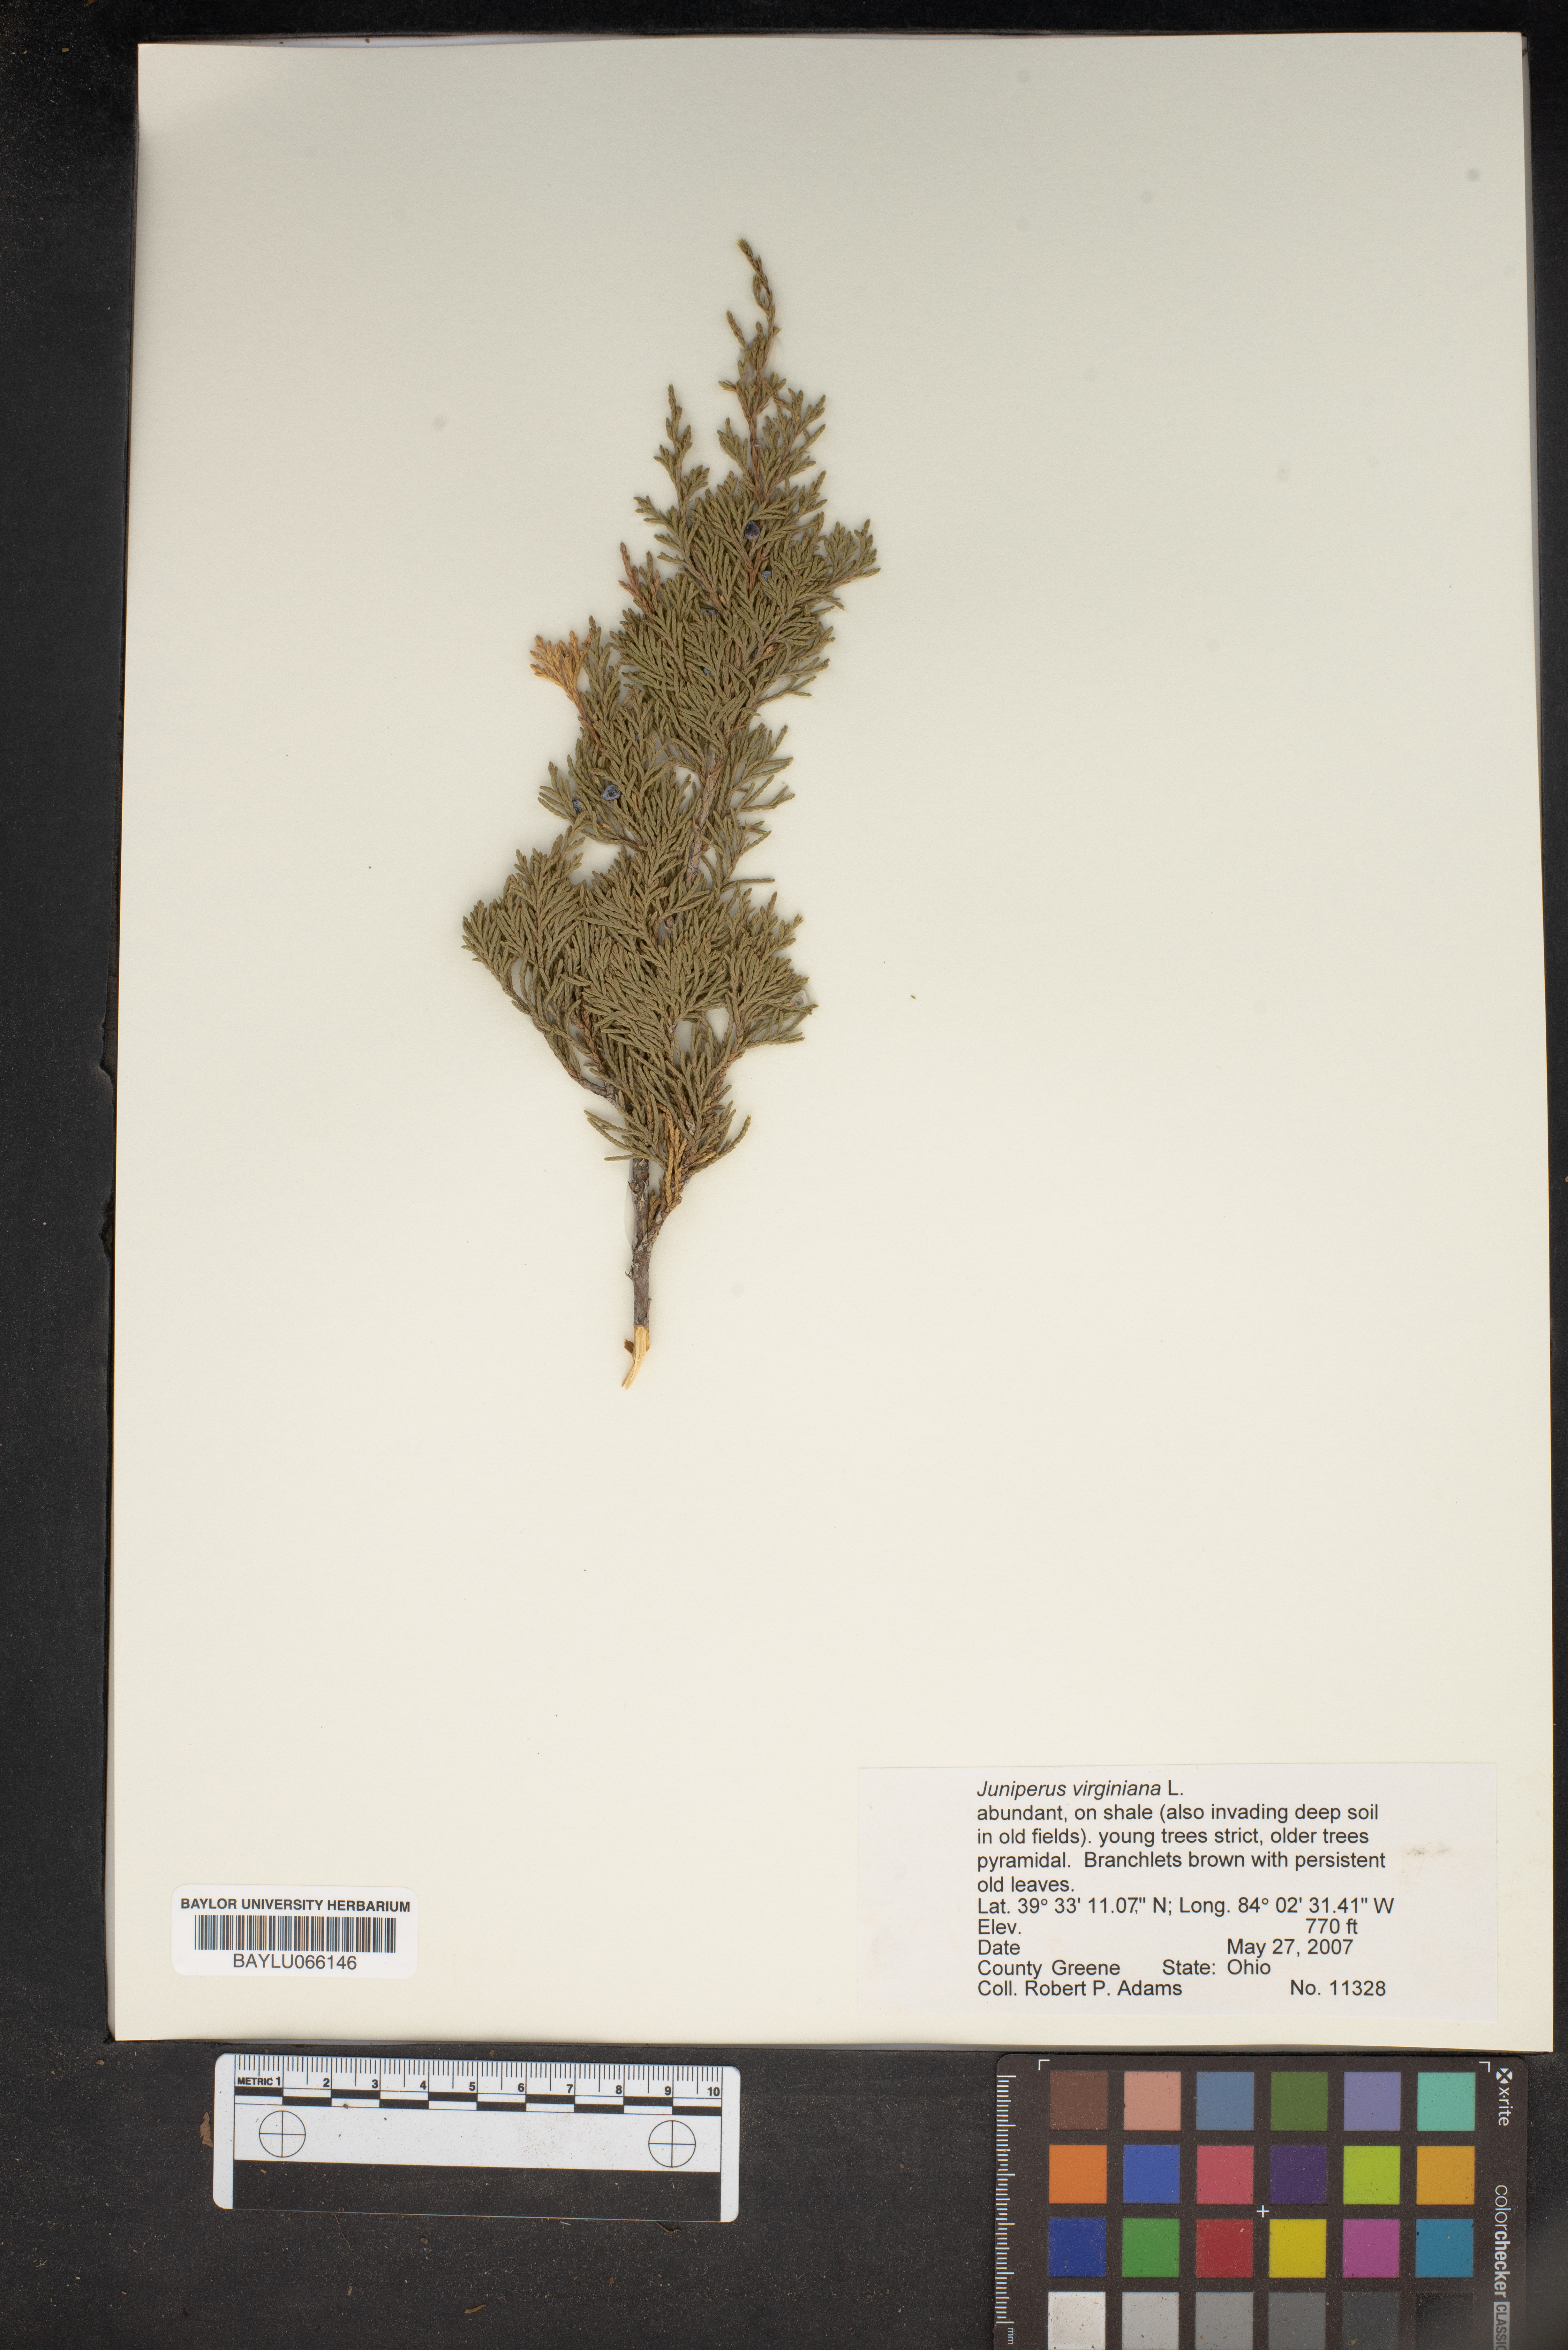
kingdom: Plantae
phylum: Tracheophyta
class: Pinopsida
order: Pinales
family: Cupressaceae
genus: Juniperus
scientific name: Juniperus virginiana
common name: Red juniper
